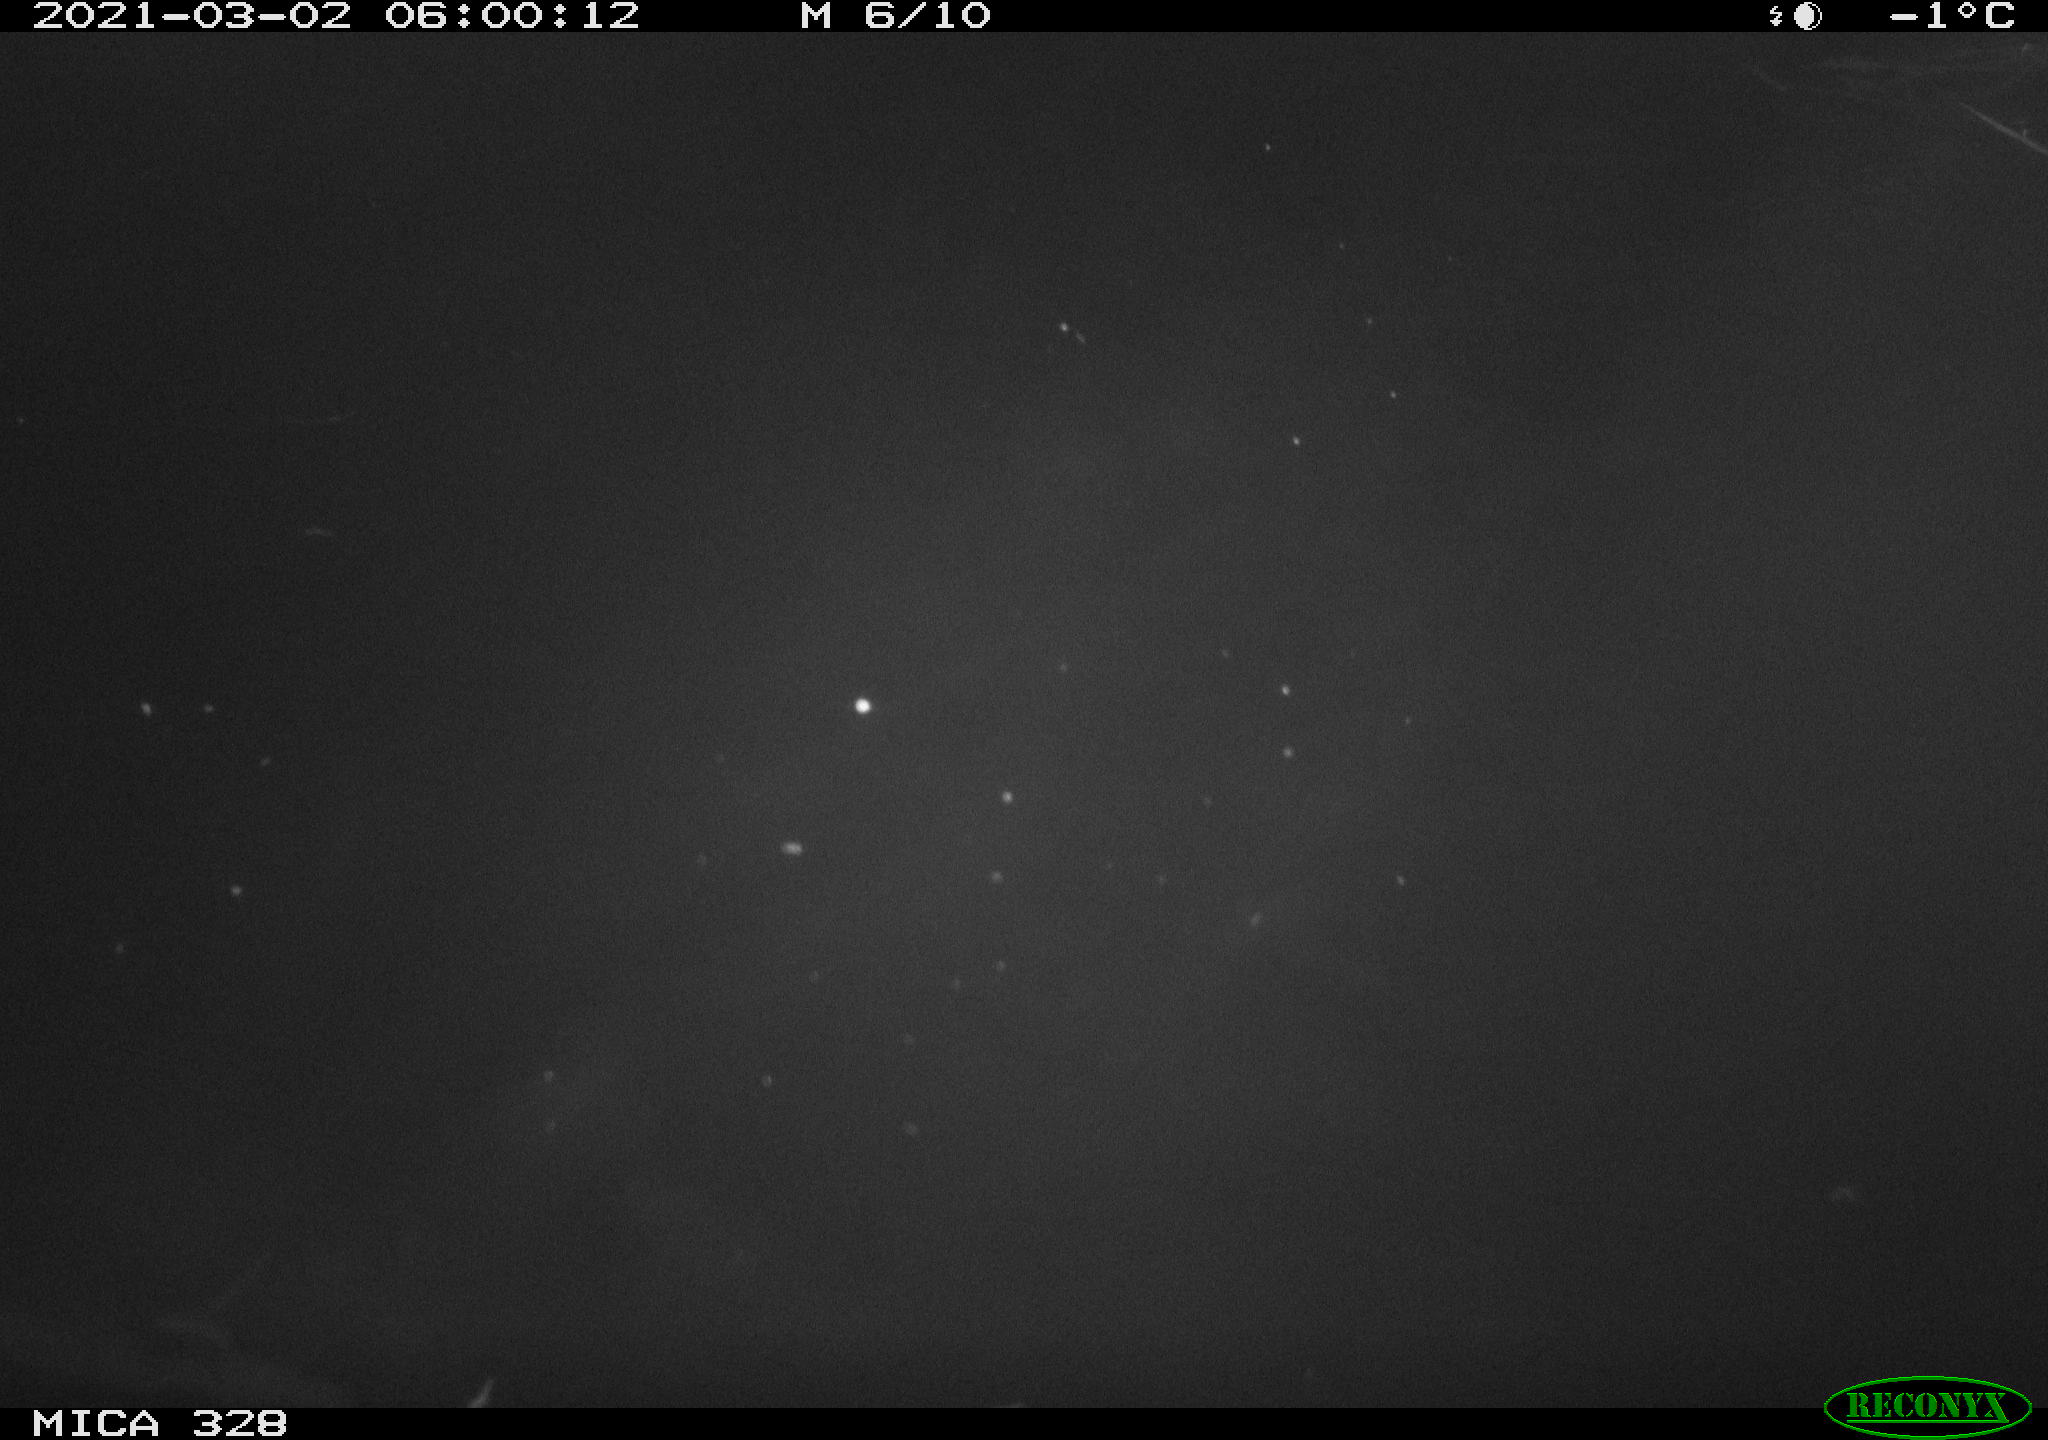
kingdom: Animalia
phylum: Chordata
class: Mammalia
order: Rodentia
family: Cricetidae
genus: Ondatra
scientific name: Ondatra zibethicus
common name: Muskrat
